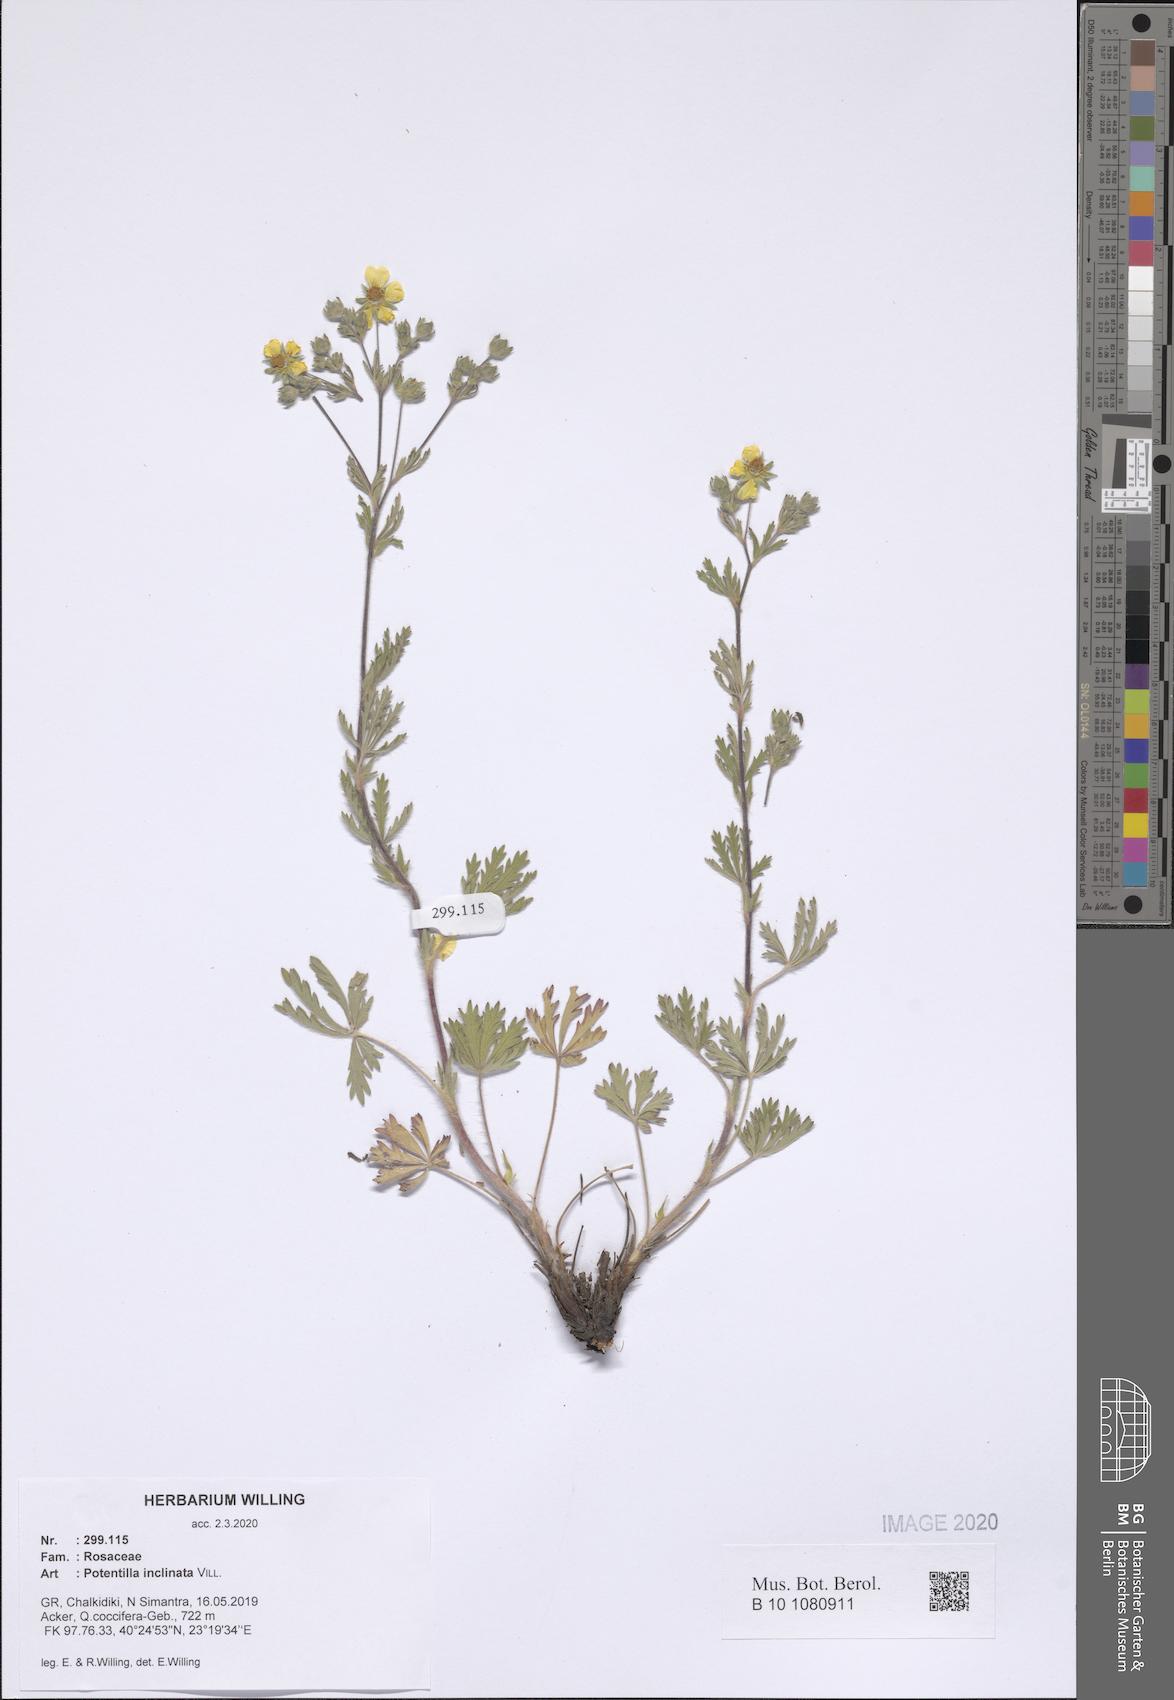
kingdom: Plantae
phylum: Tracheophyta
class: Magnoliopsida
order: Rosales
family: Rosaceae
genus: Potentilla
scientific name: Potentilla inclinata
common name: Grey cinquefoil
